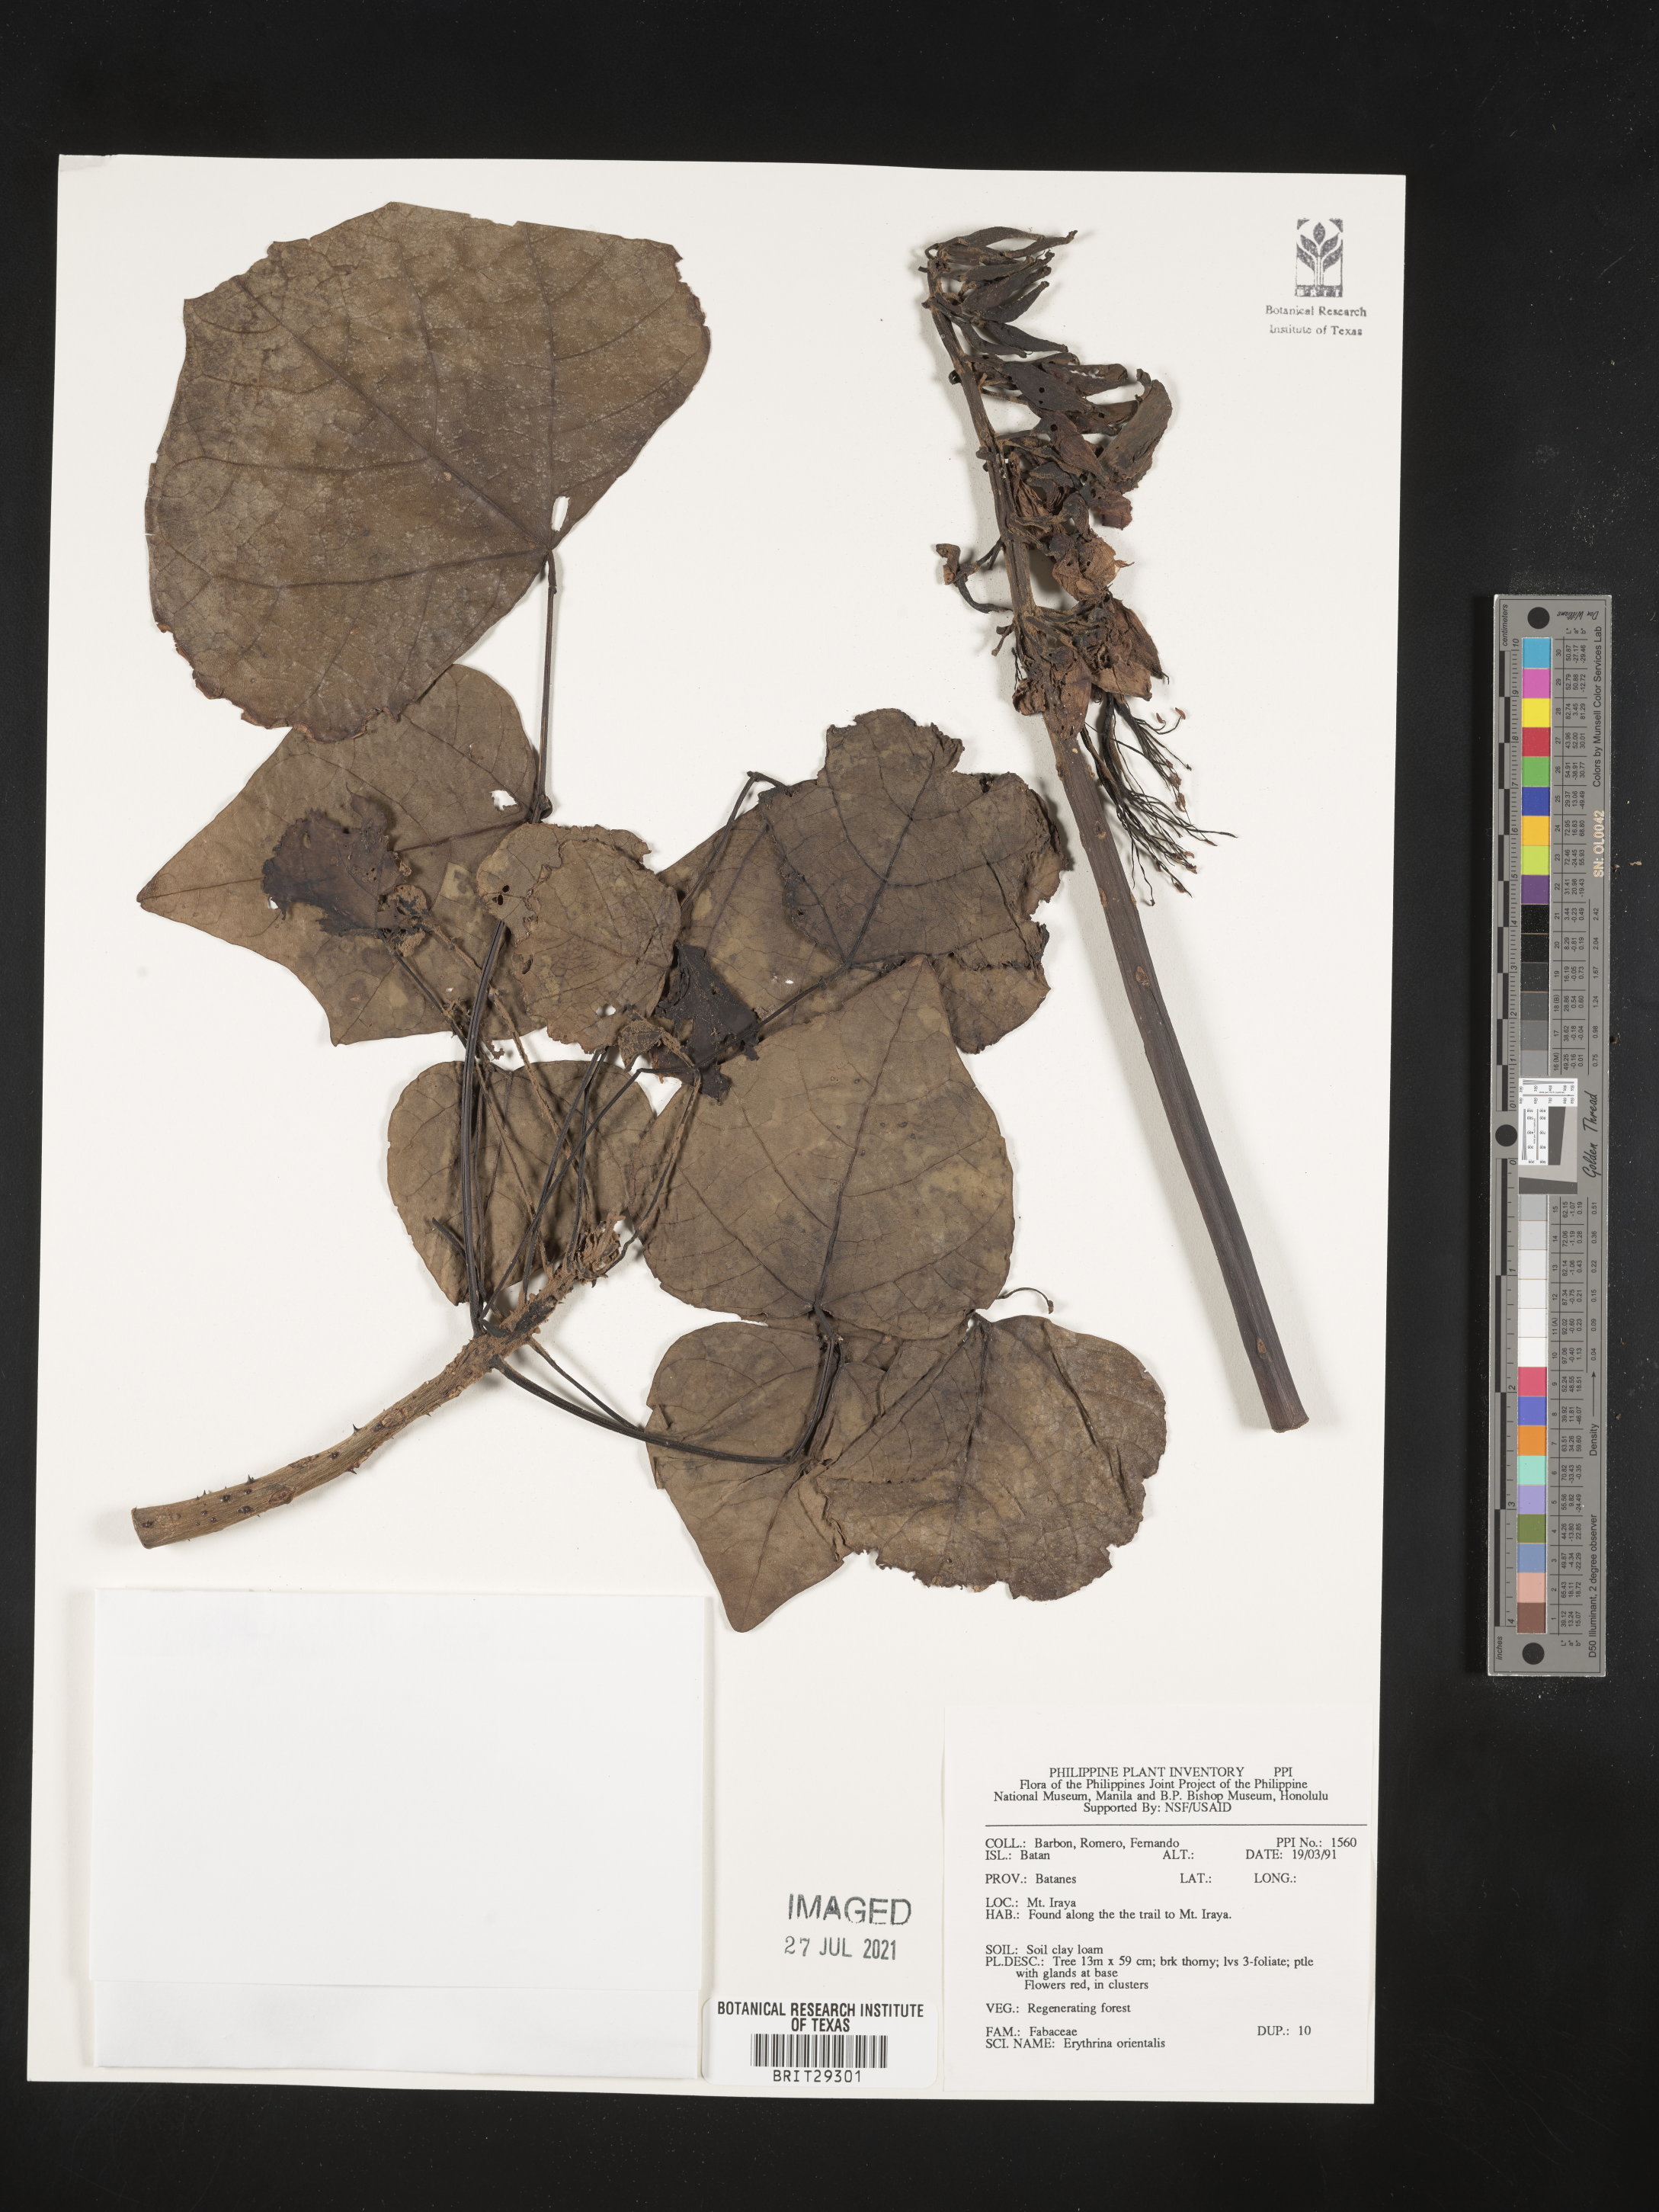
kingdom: Plantae
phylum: Tracheophyta
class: Magnoliopsida
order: Fabales
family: Fabaceae
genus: Erythrina
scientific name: Erythrina variegata
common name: Indian coral tree
